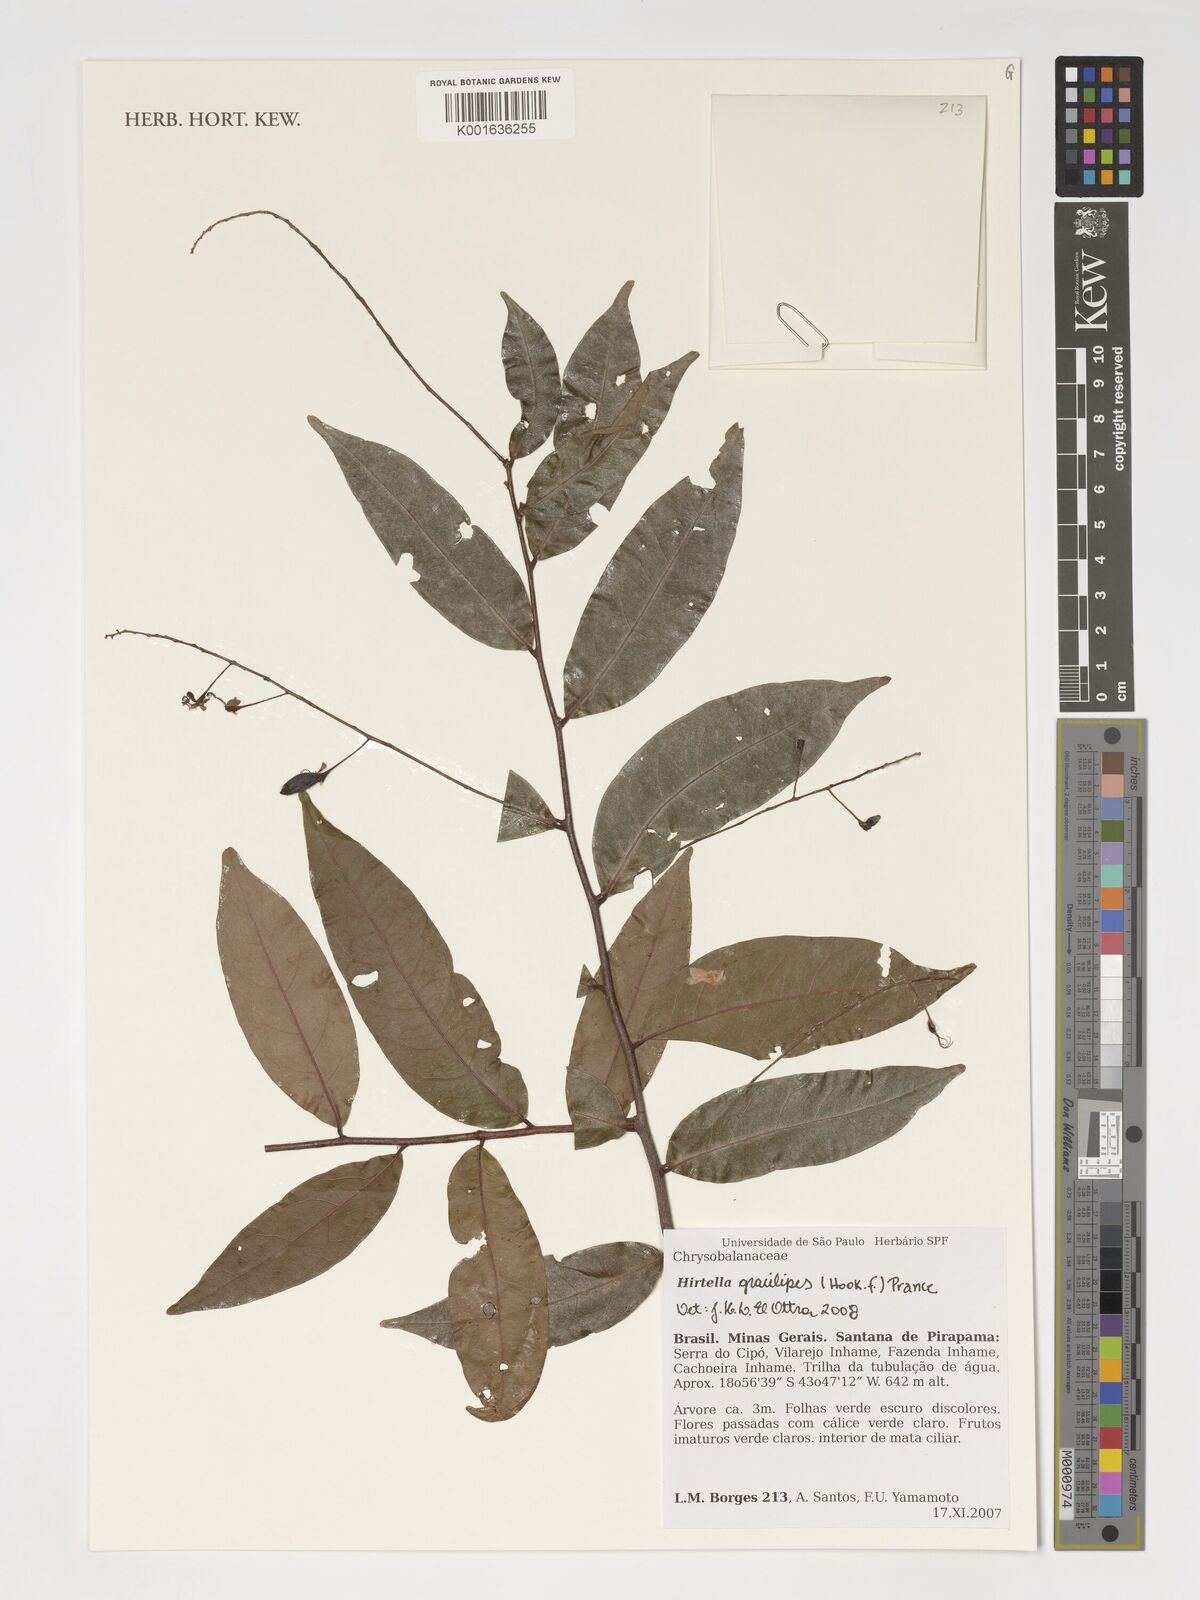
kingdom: Plantae
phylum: Tracheophyta
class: Magnoliopsida
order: Malpighiales
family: Chrysobalanaceae
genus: Hirtella
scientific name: Hirtella gracilipes
